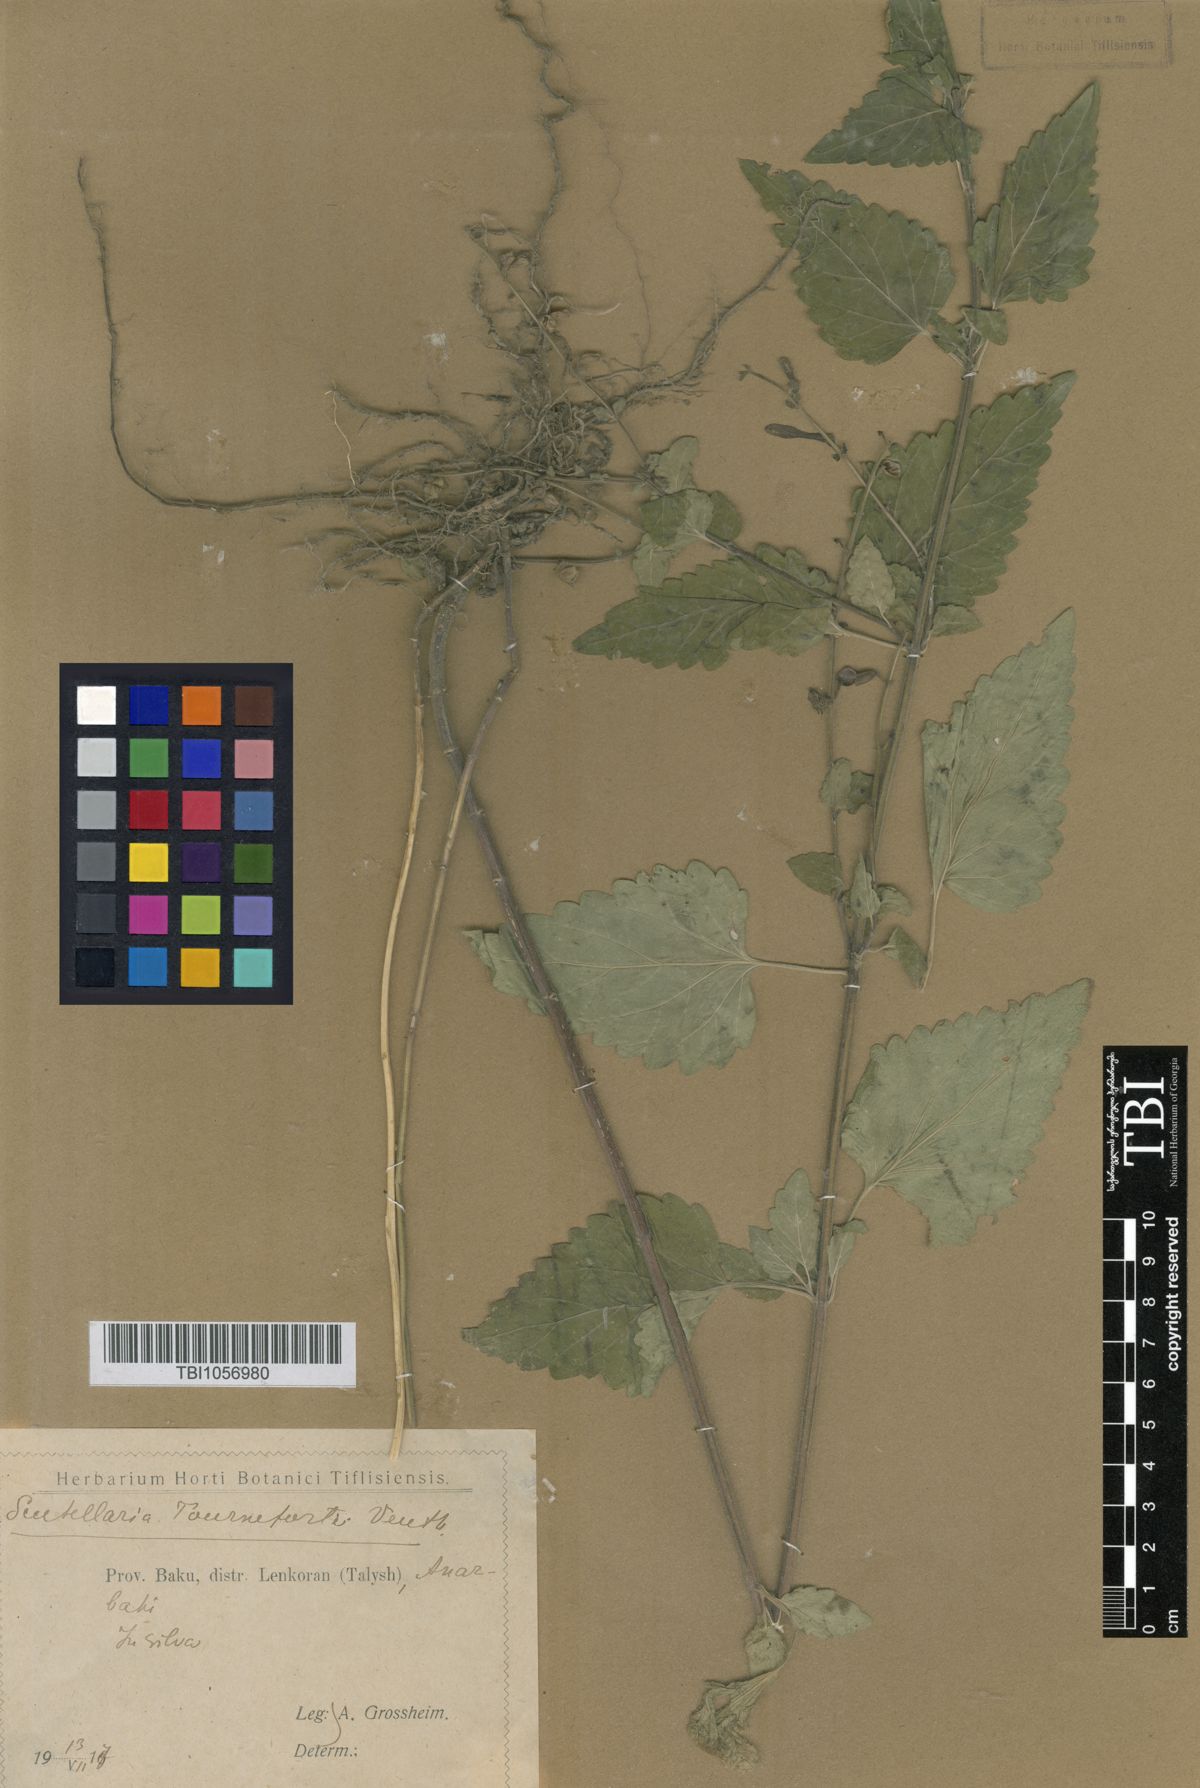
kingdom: Plantae
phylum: Tracheophyta
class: Magnoliopsida
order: Lamiales
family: Lamiaceae
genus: Scutellaria
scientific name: Scutellaria tournefortii
